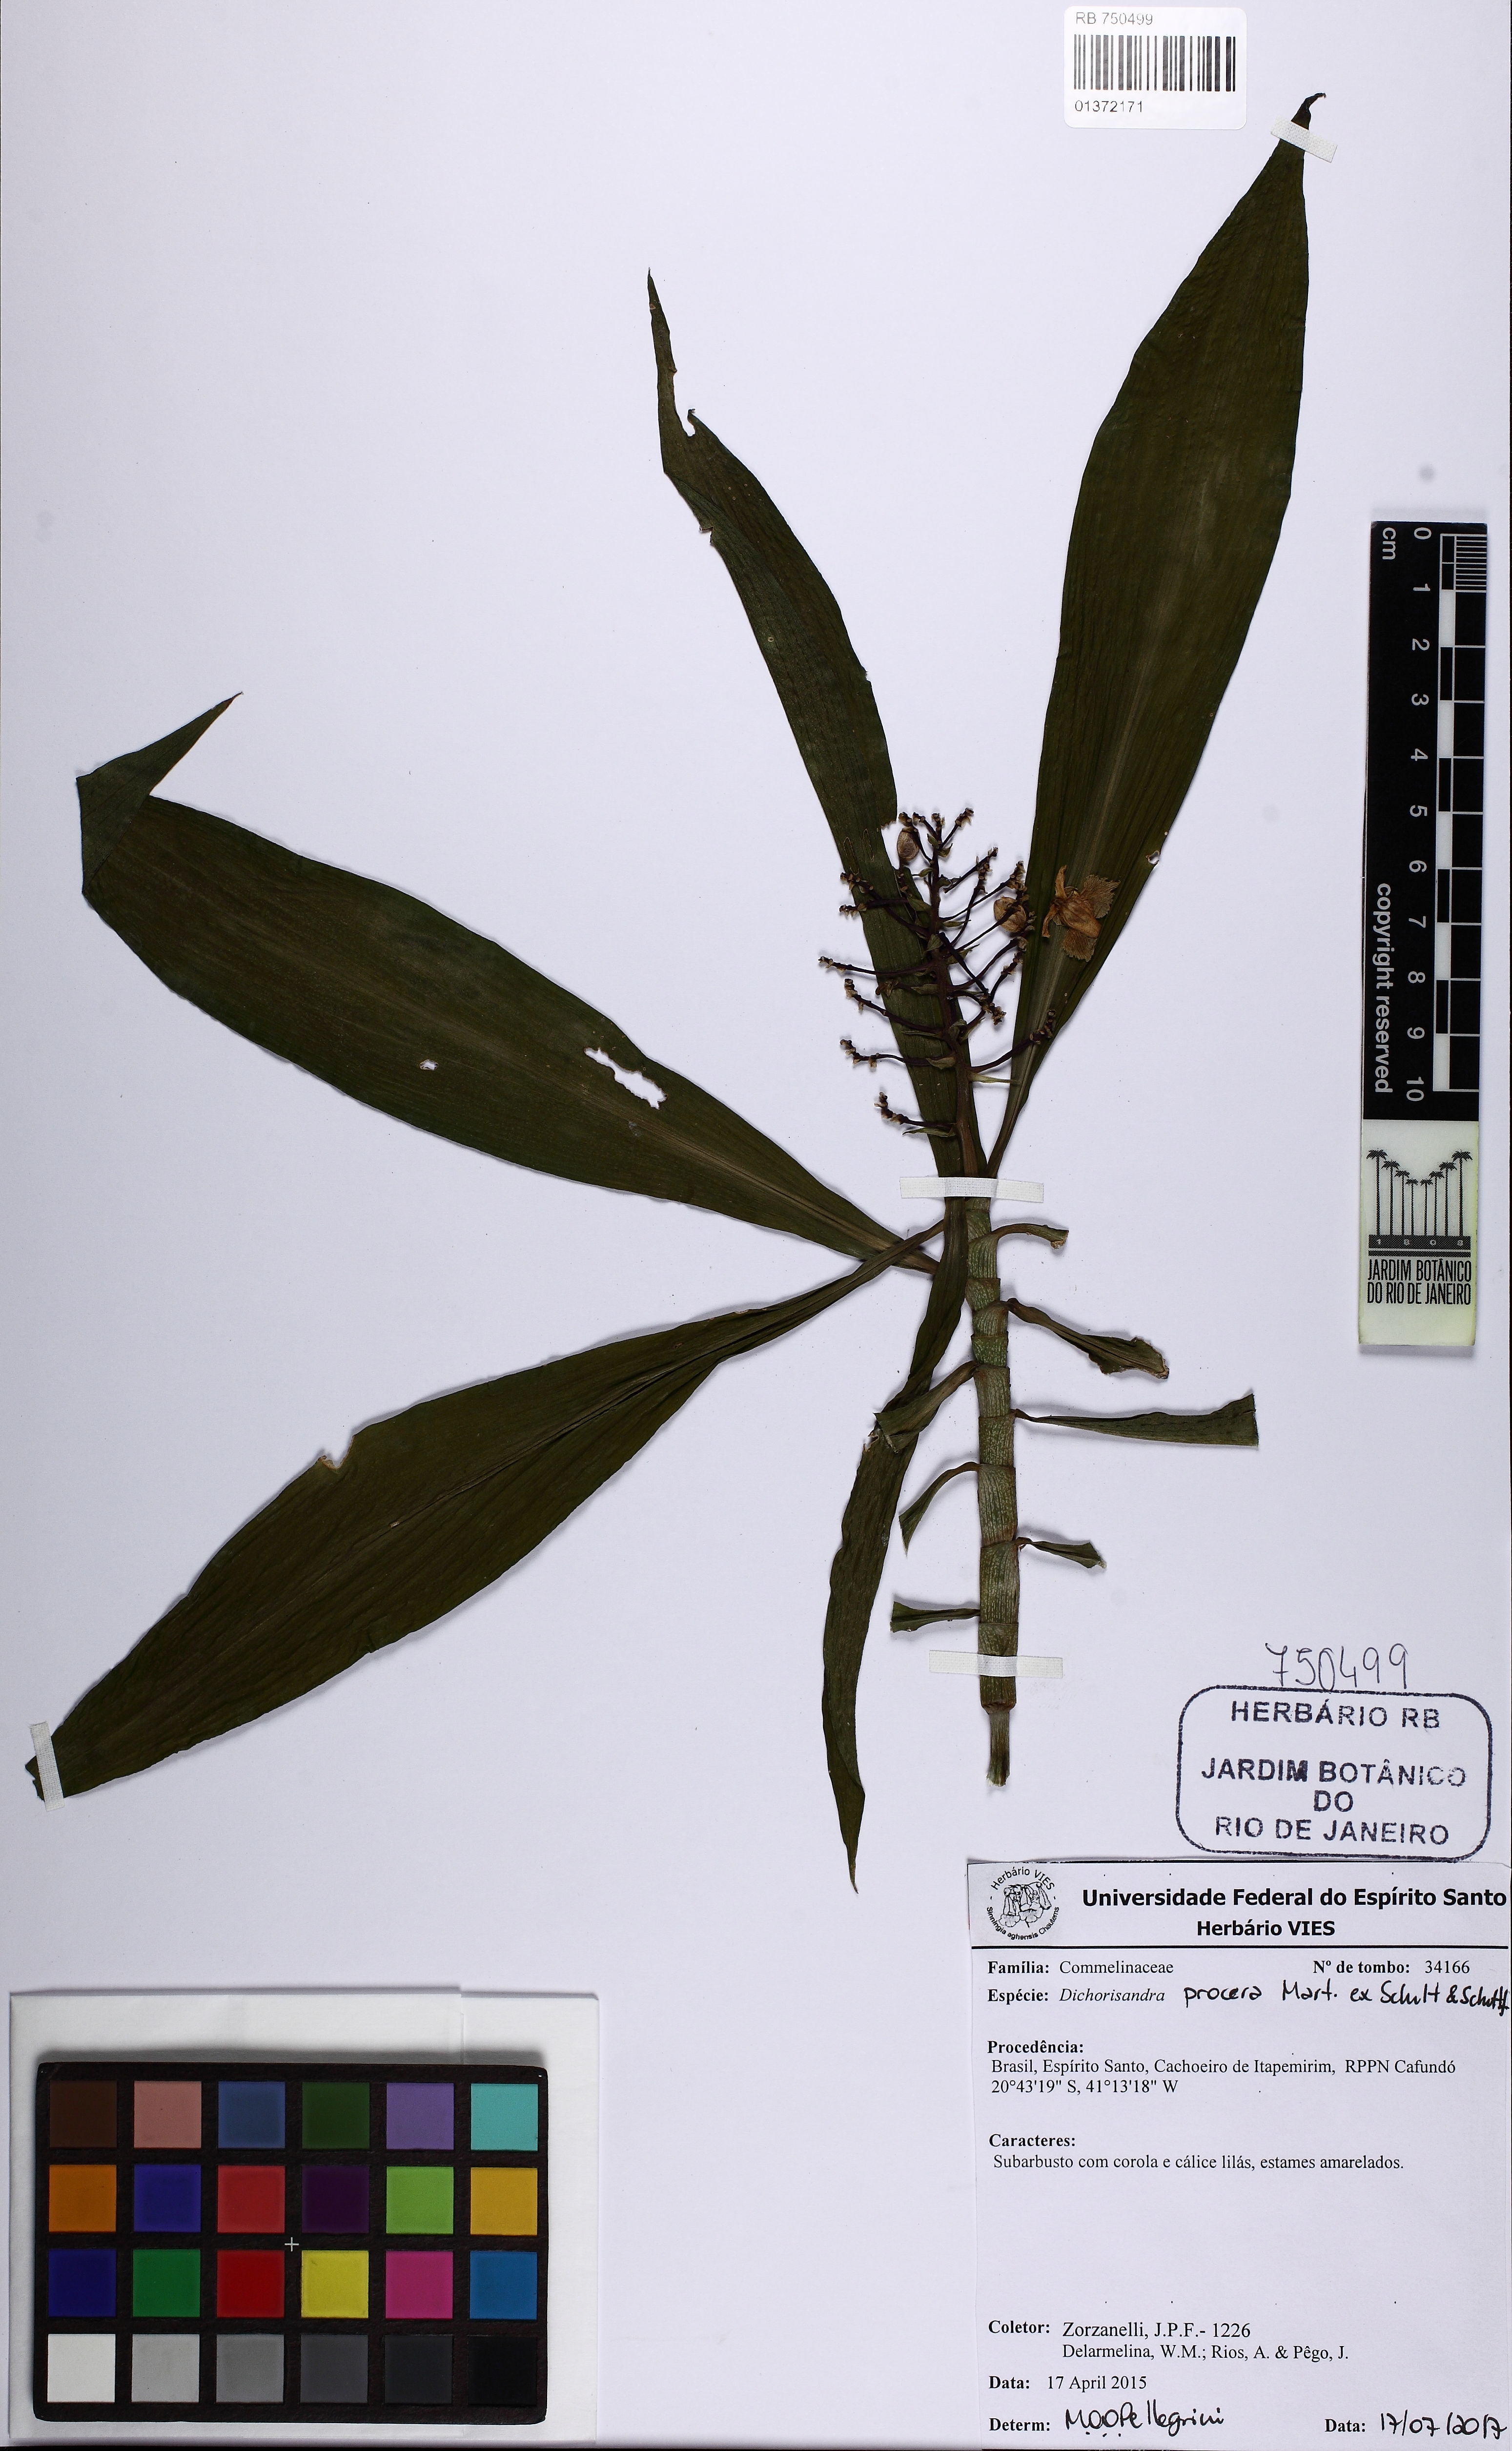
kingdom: Plantae
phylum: Tracheophyta
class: Liliopsida
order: Commelinales
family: Commelinaceae
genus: Dichorisandra
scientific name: Dichorisandra procera
